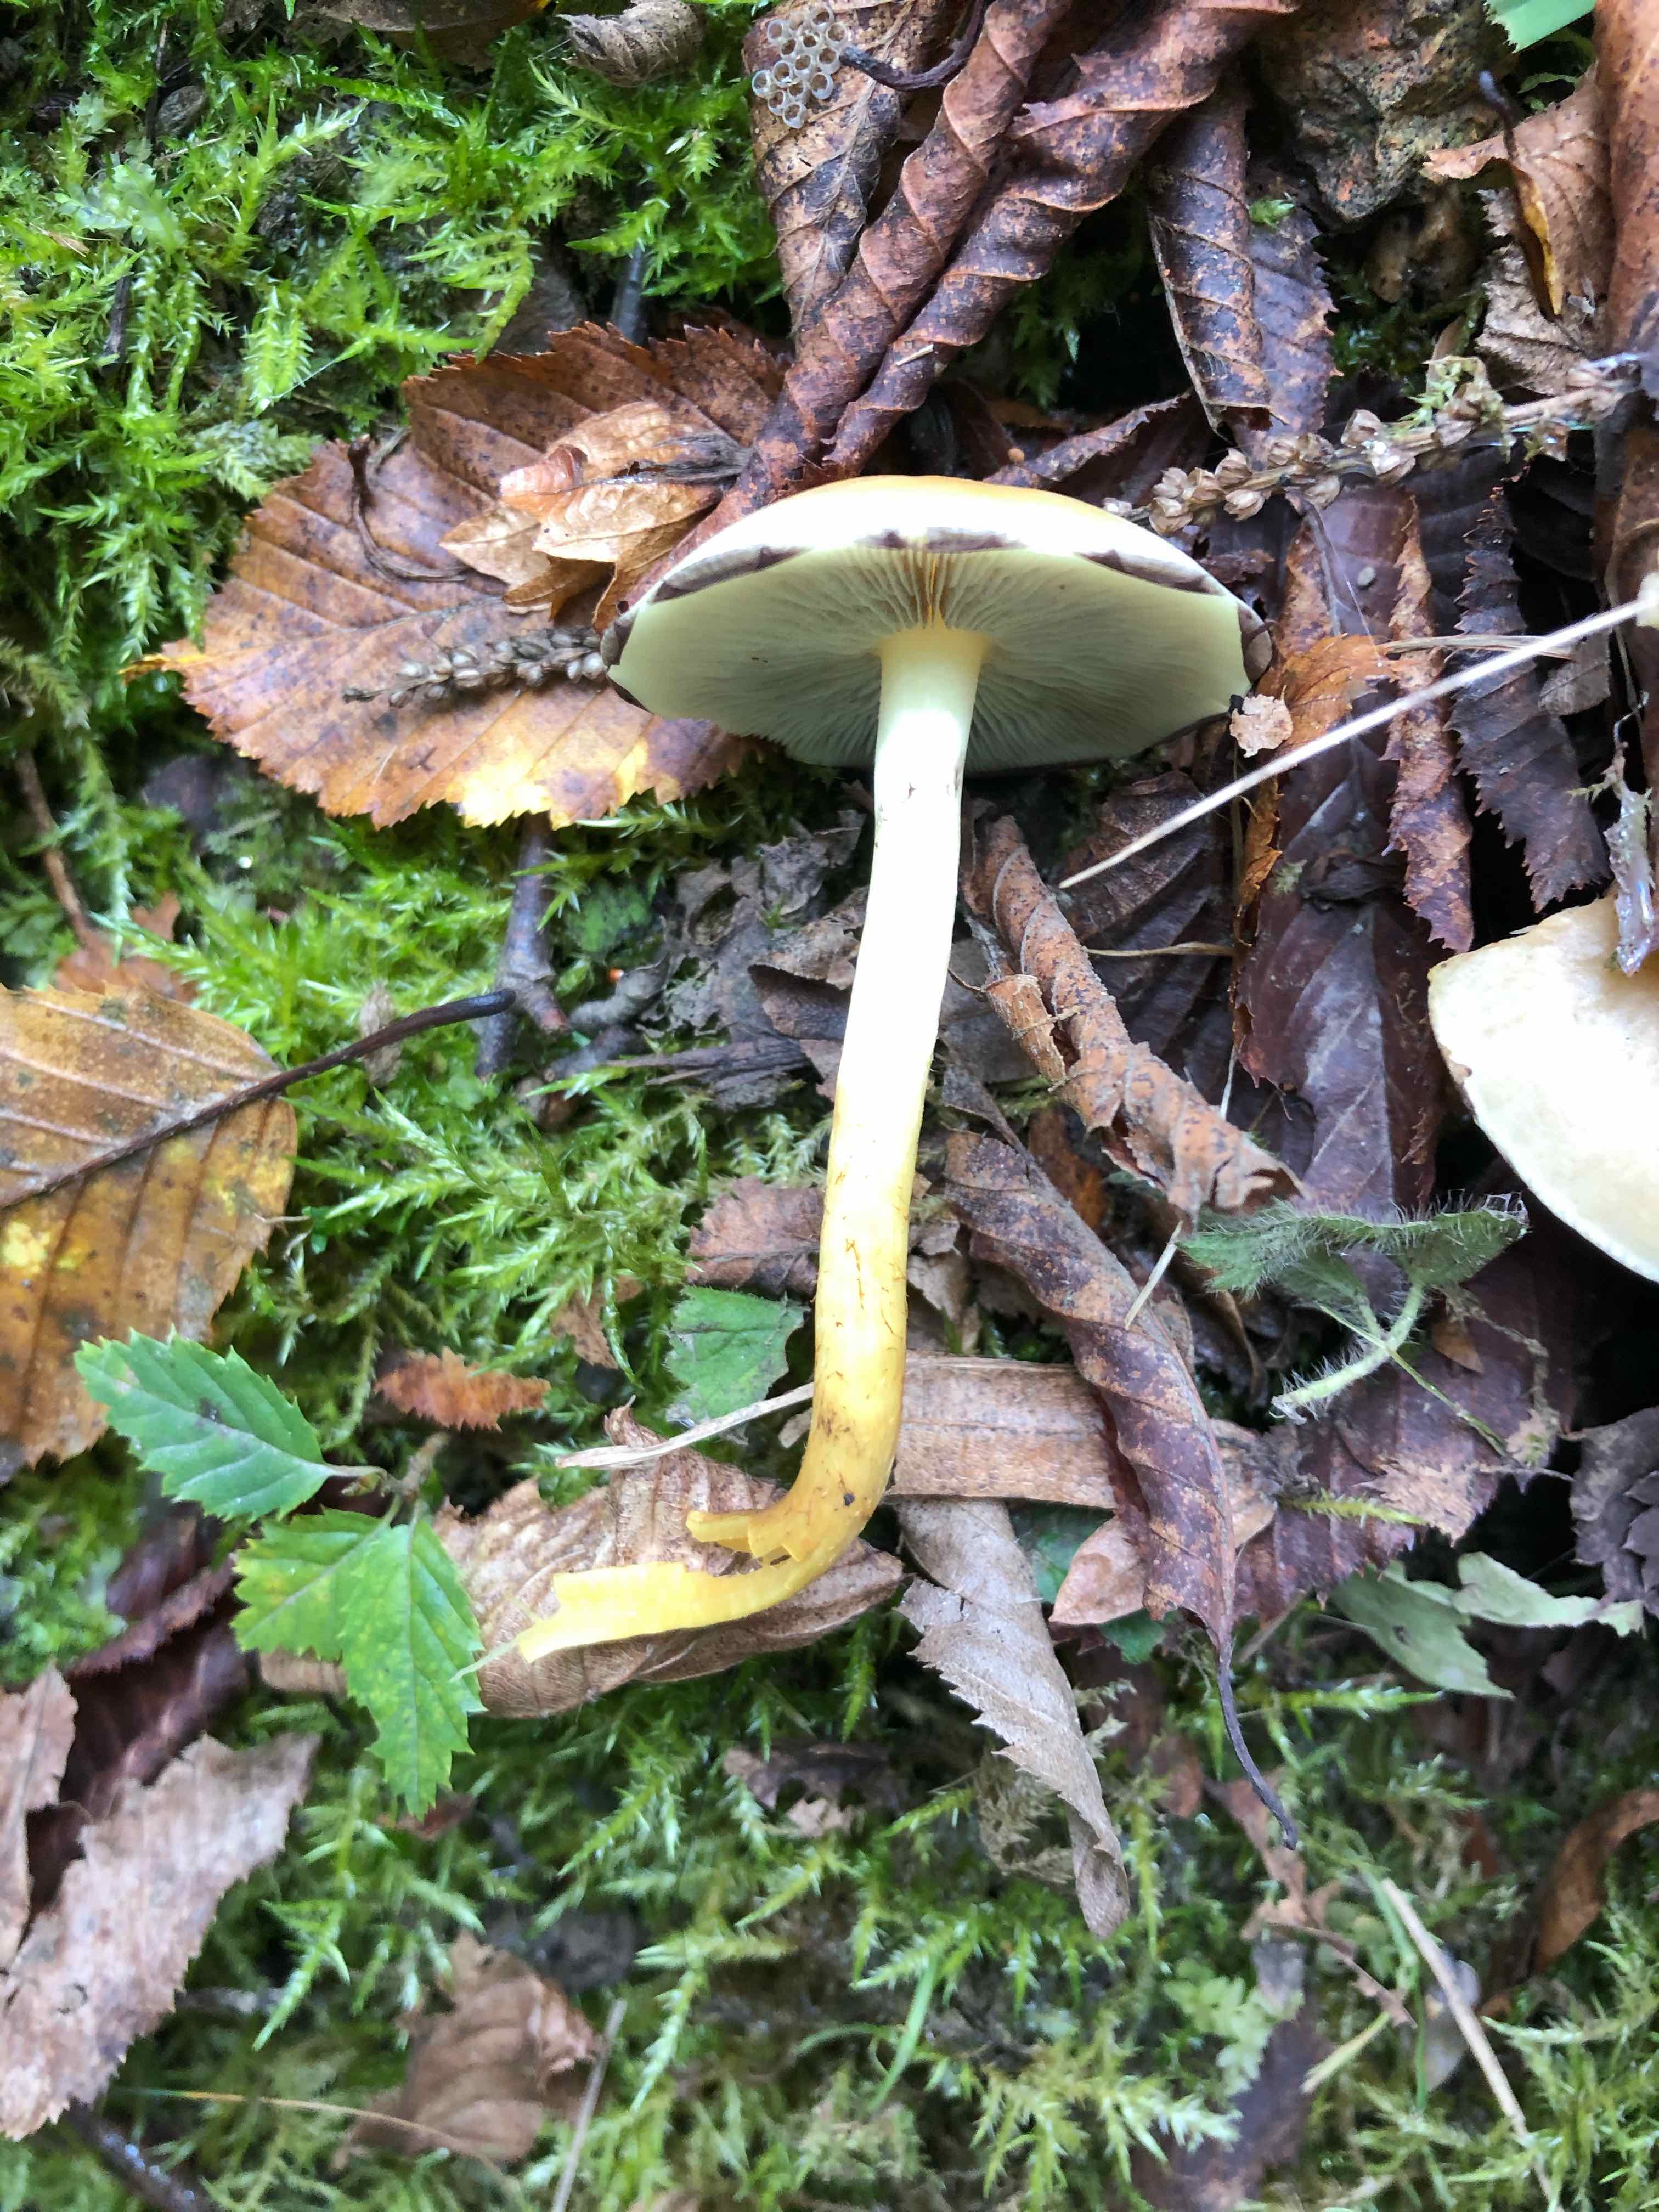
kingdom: Fungi
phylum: Basidiomycota
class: Agaricomycetes
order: Agaricales
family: Strophariaceae
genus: Hypholoma
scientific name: Hypholoma fasciculare
